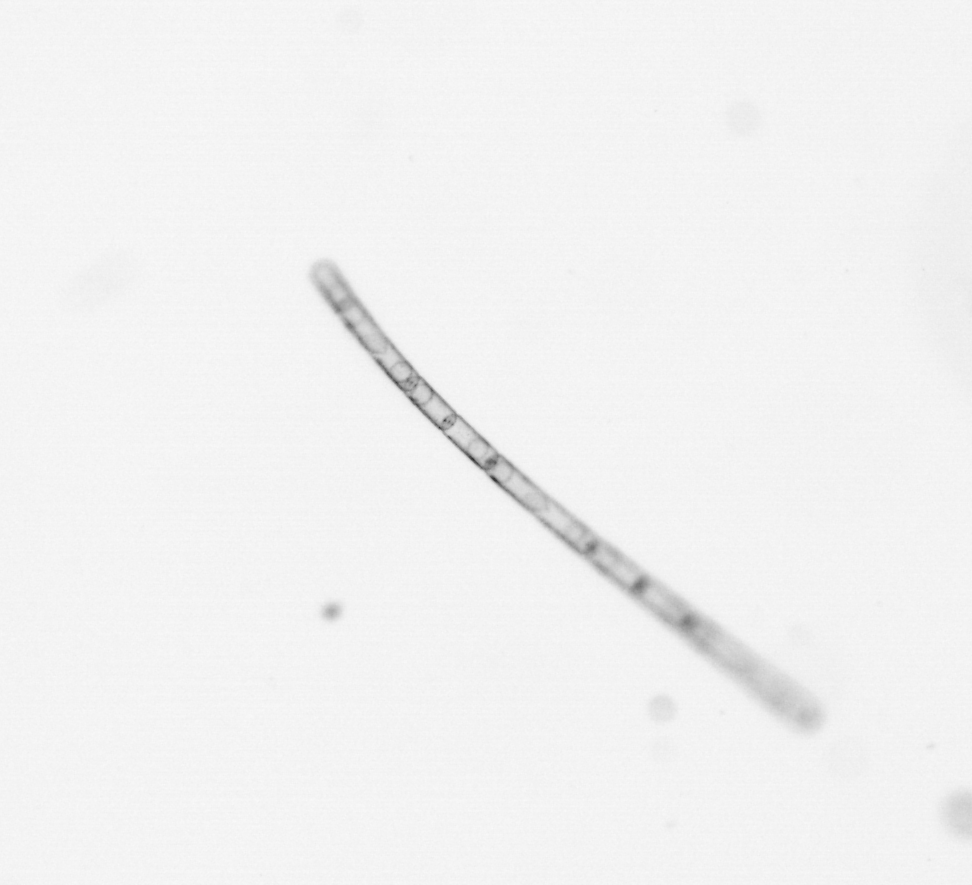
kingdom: Chromista
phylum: Ochrophyta
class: Bacillariophyceae
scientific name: Bacillariophyceae
